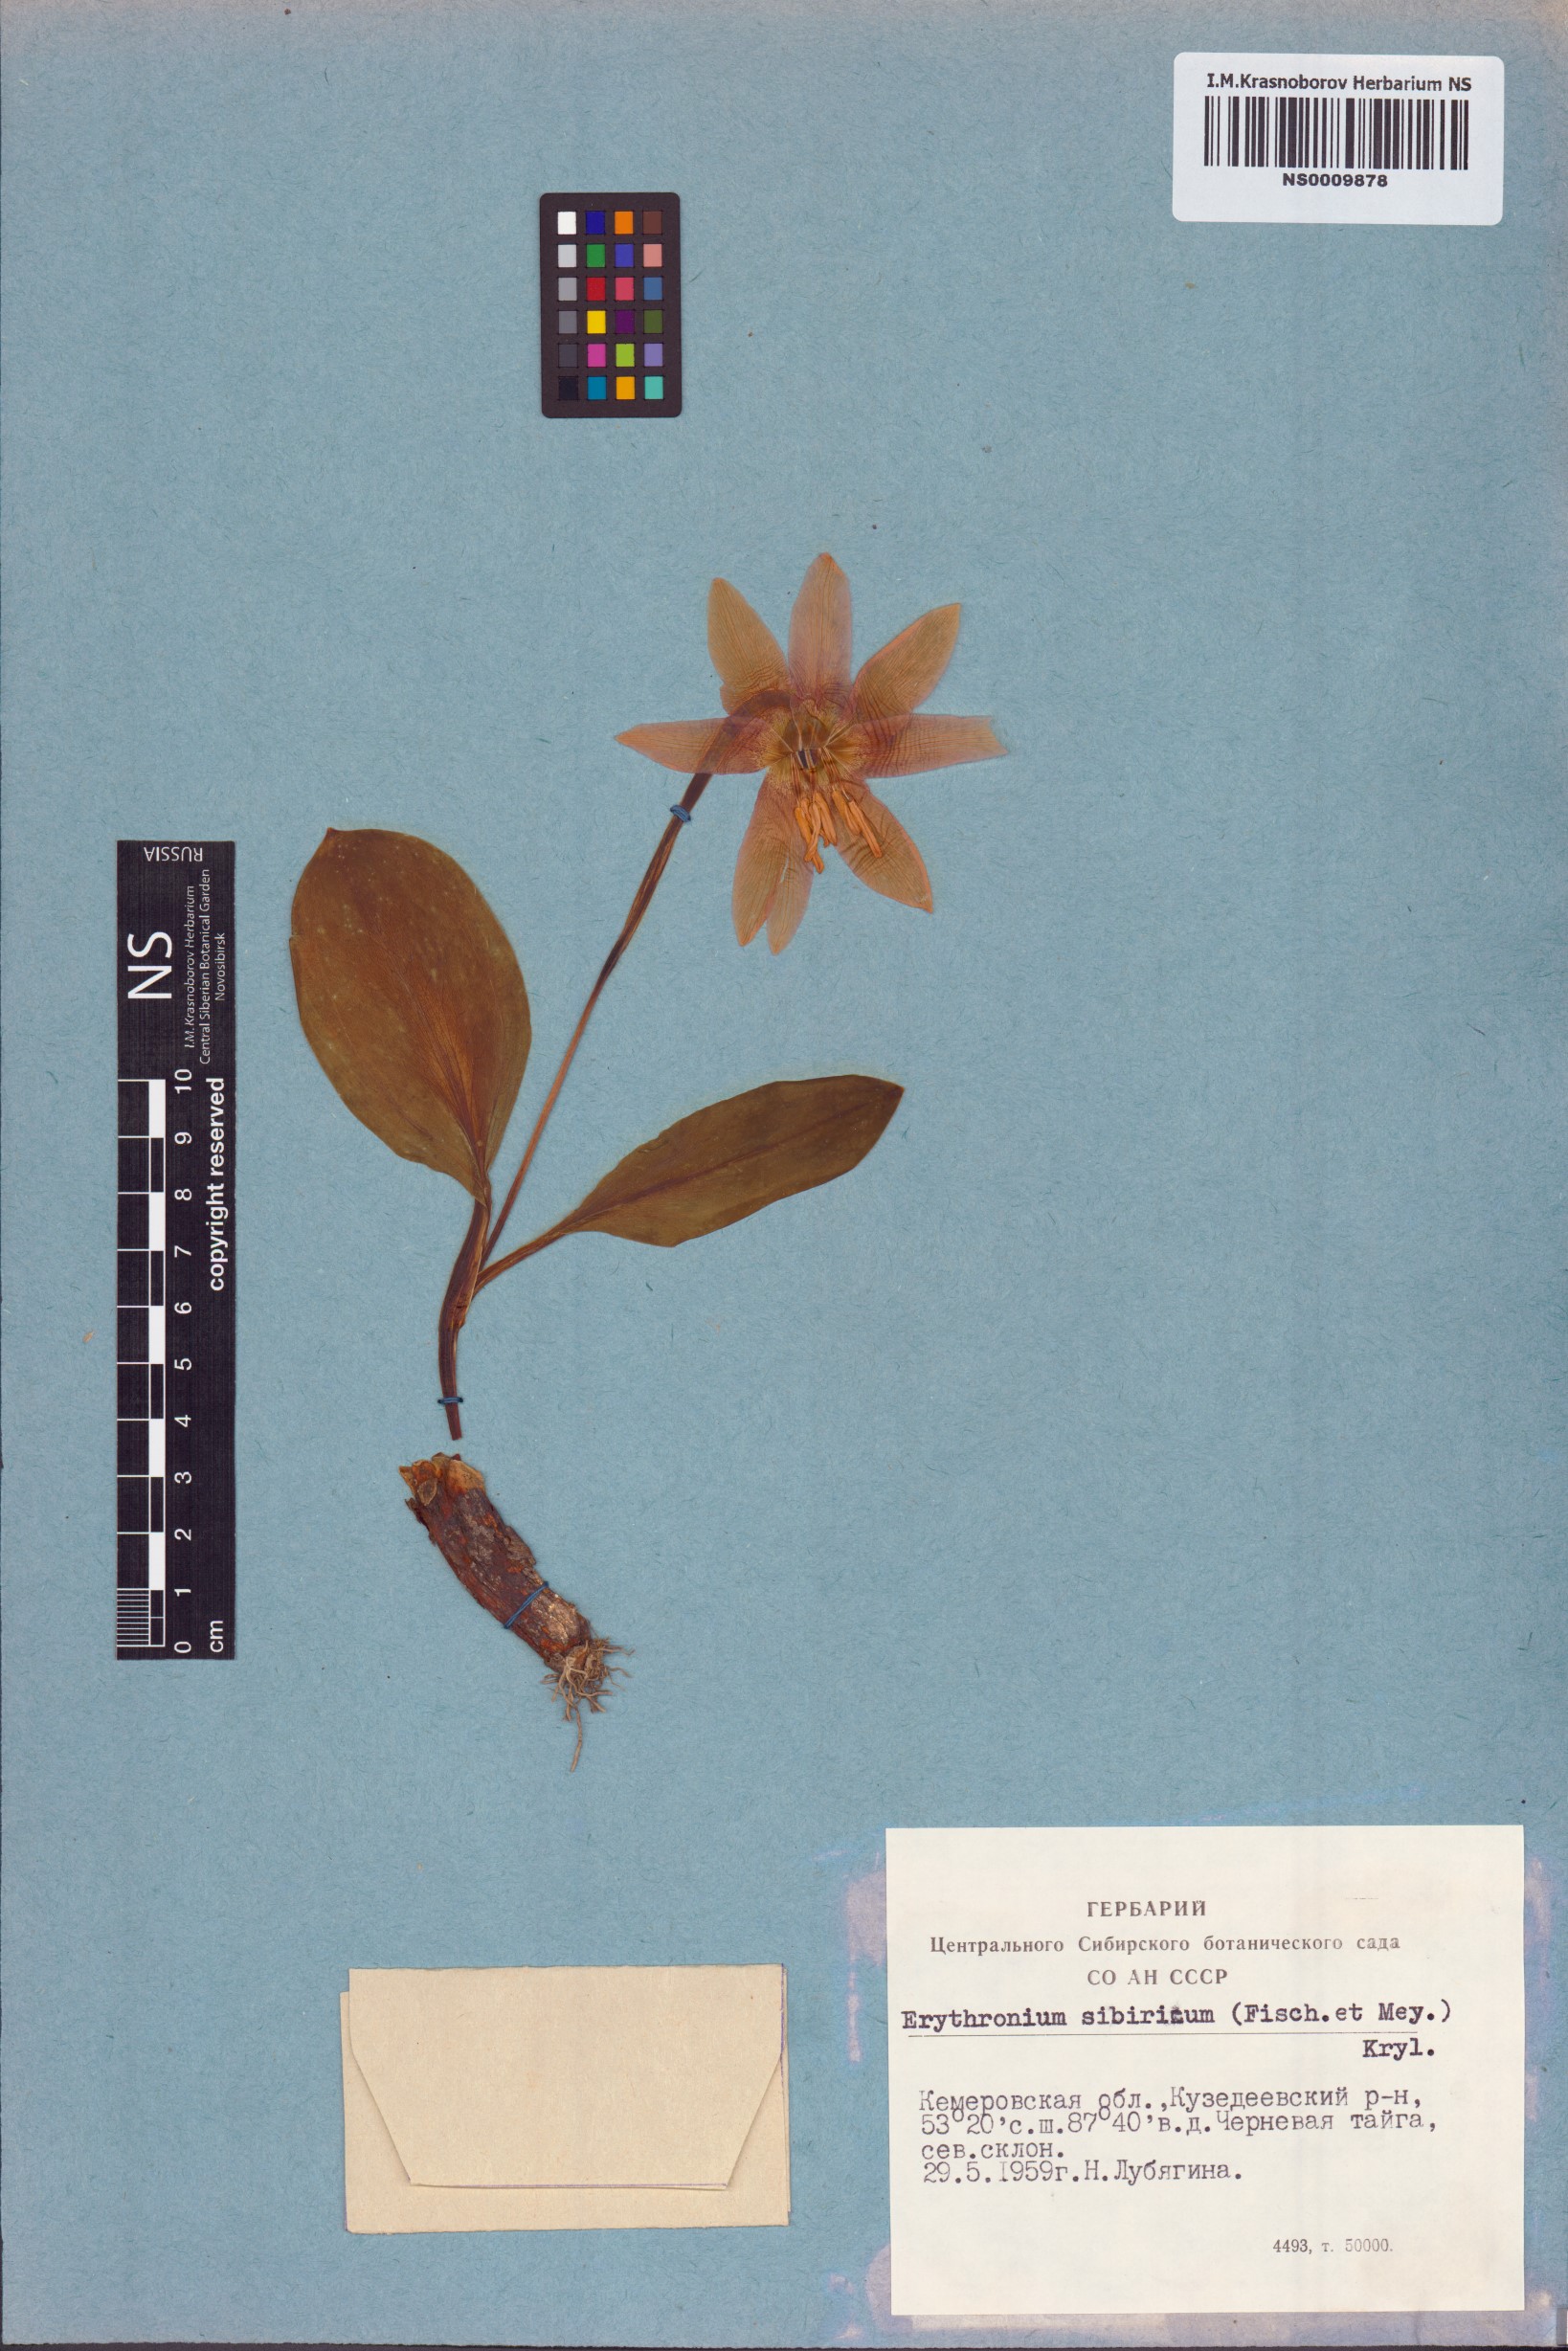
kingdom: Plantae
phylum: Tracheophyta
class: Liliopsida
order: Liliales
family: Liliaceae
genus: Erythronium
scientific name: Erythronium sibiricum
